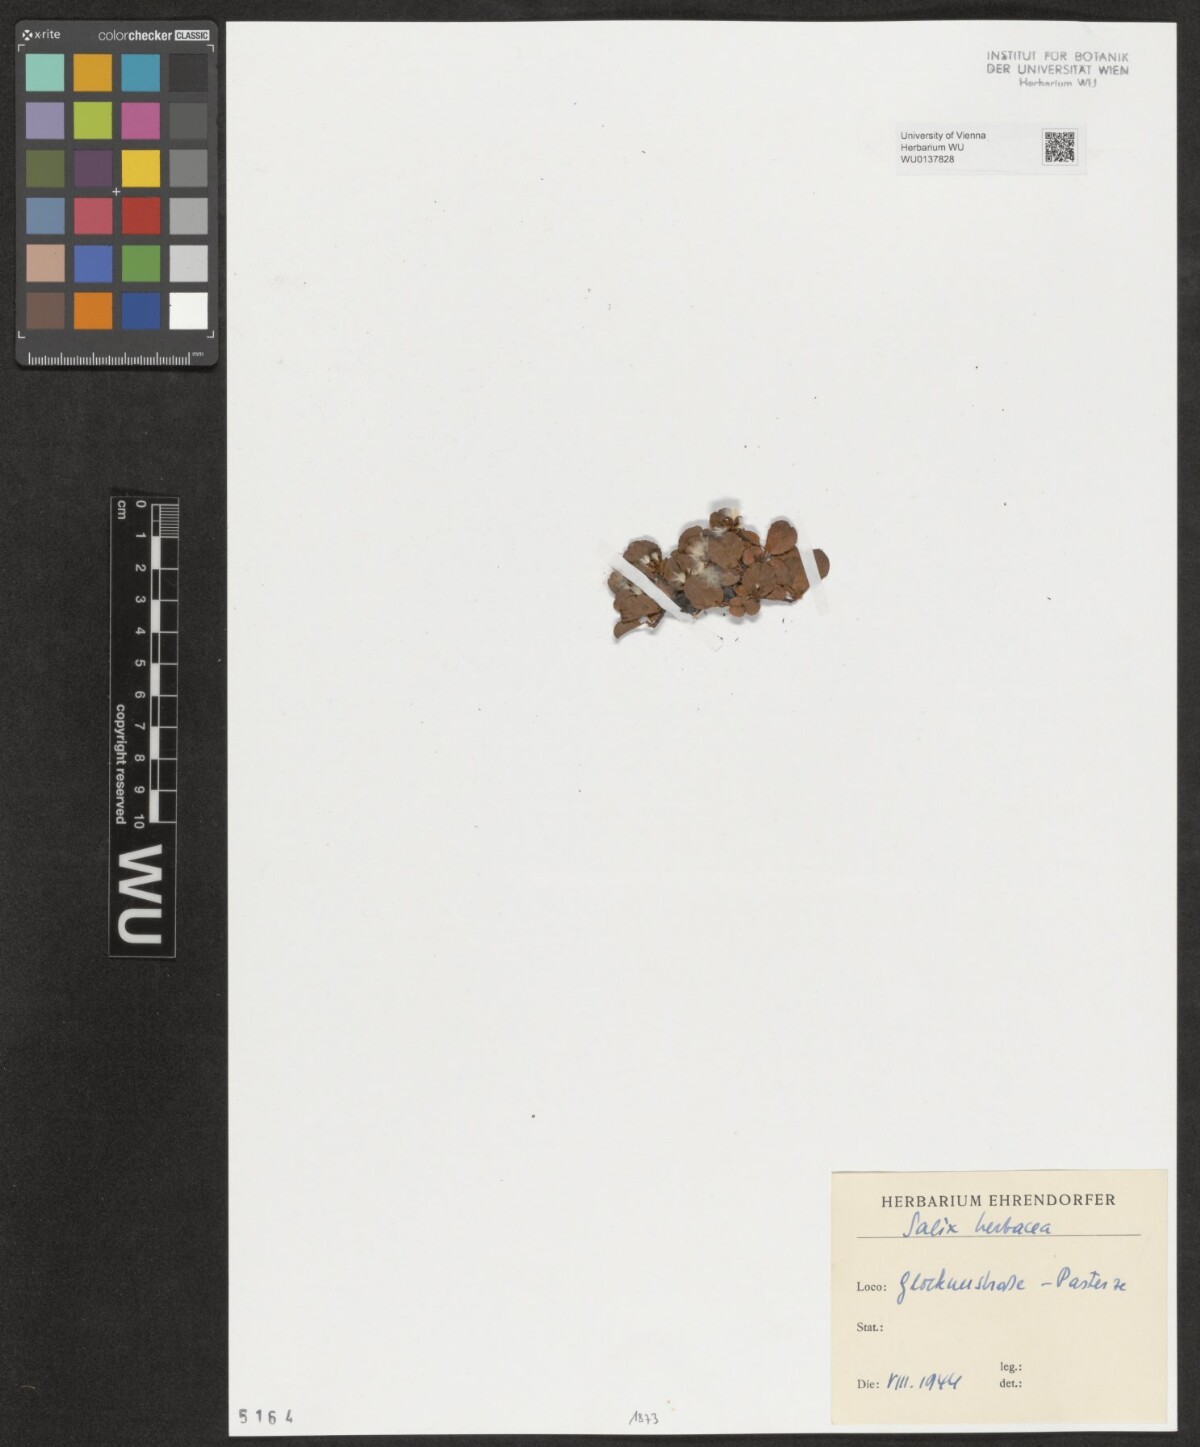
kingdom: Plantae
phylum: Tracheophyta
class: Magnoliopsida
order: Malpighiales
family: Salicaceae
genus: Salix
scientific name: Salix herbacea
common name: Dwarf willow
